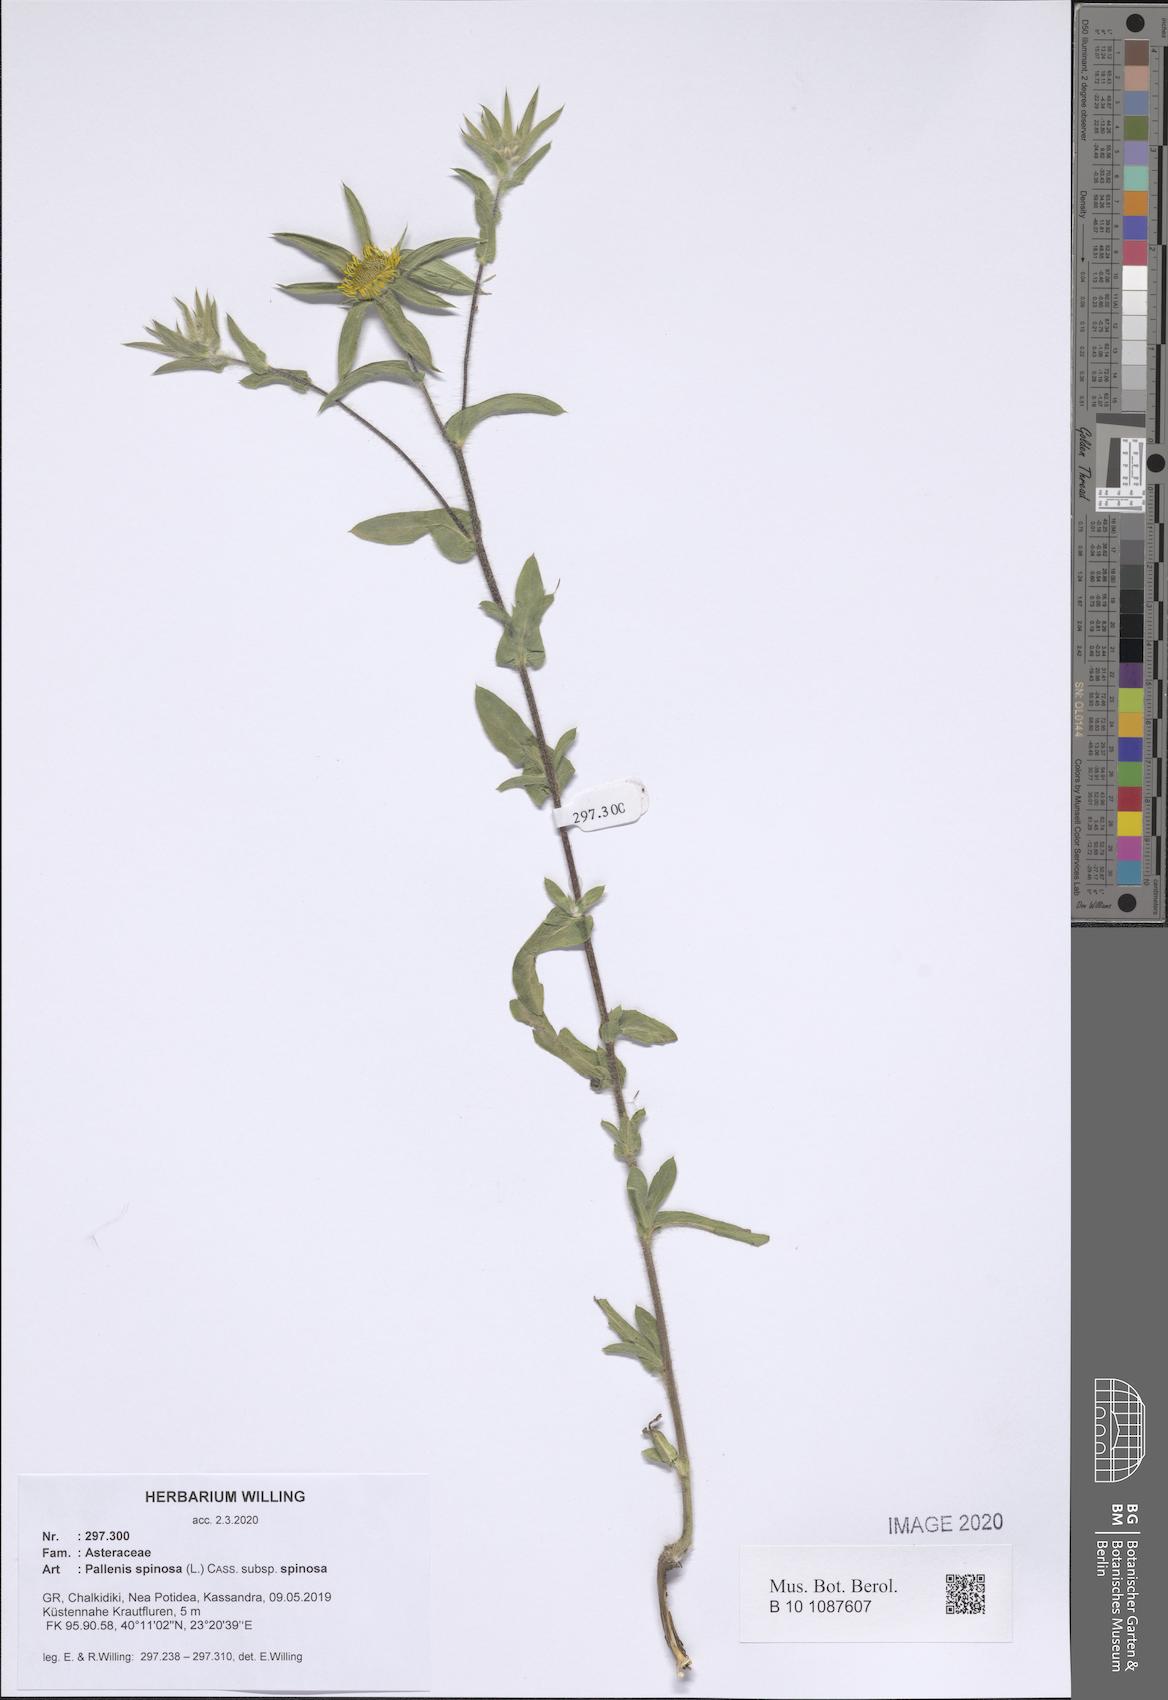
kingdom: Plantae
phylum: Tracheophyta
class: Magnoliopsida
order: Asterales
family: Asteraceae
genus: Pallenis
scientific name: Pallenis spinosa
